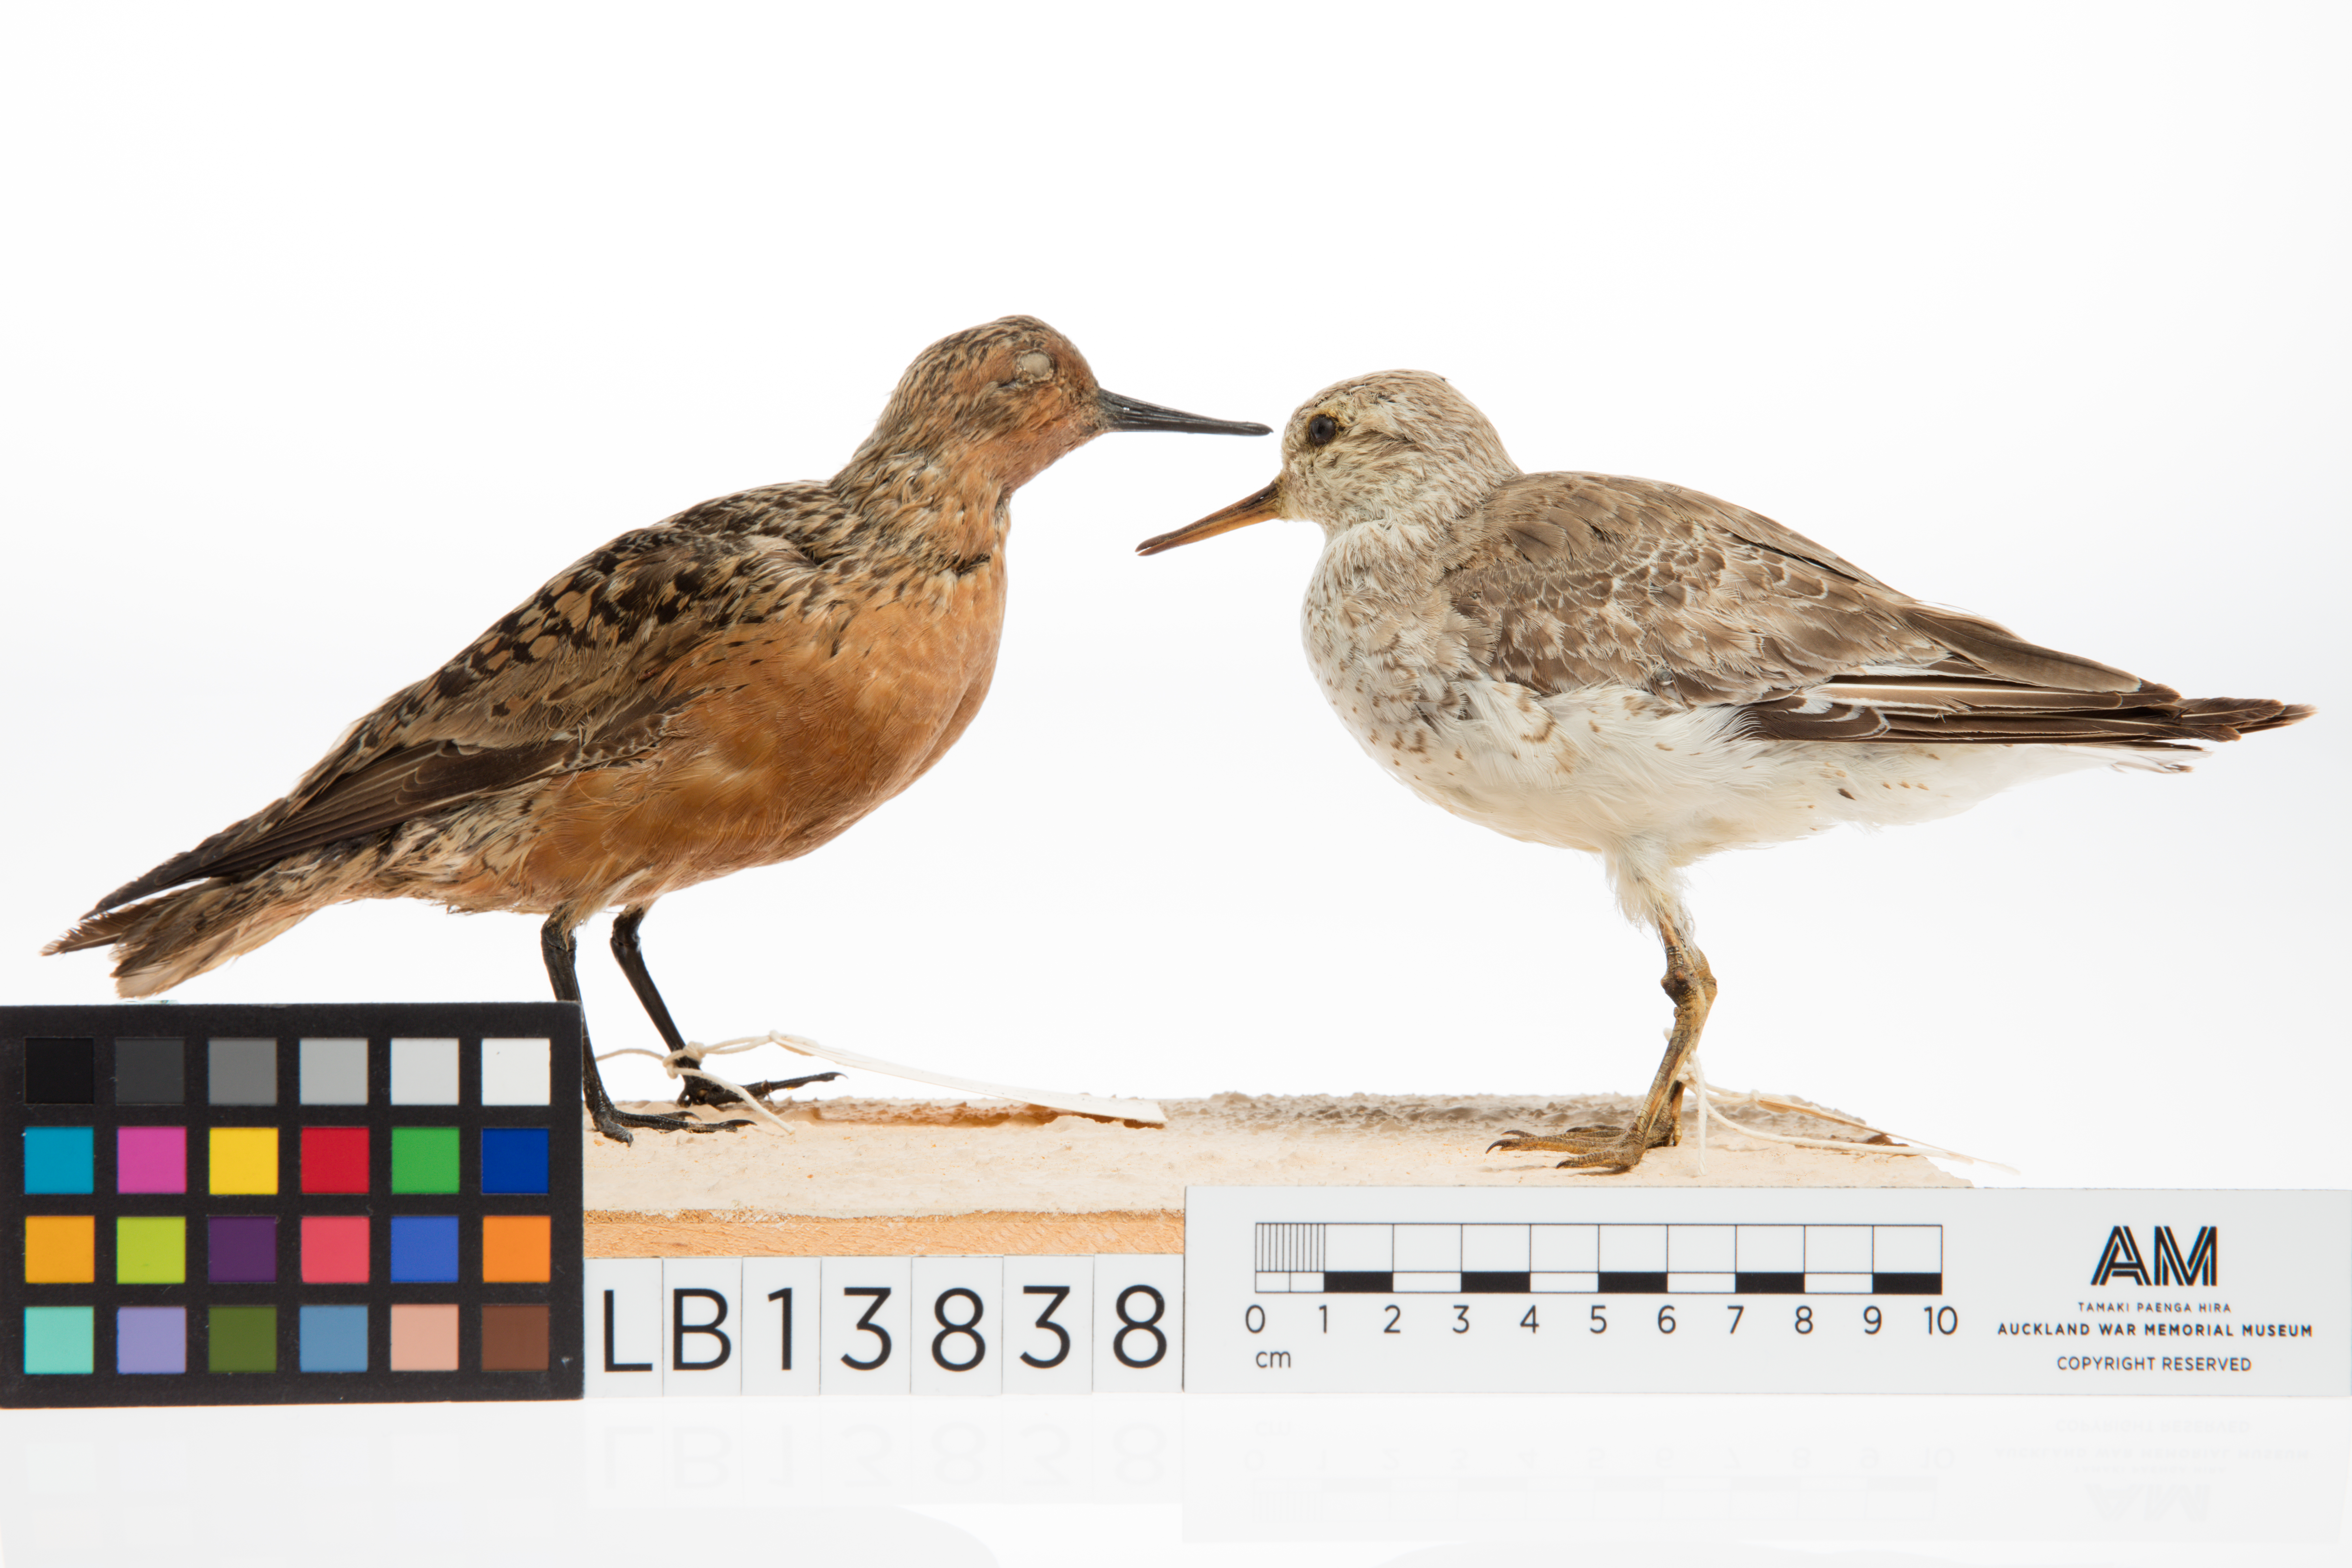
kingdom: Animalia
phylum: Chordata
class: Aves
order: Charadriiformes
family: Scolopacidae
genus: Calidris
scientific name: Calidris canutus
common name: Red knot
